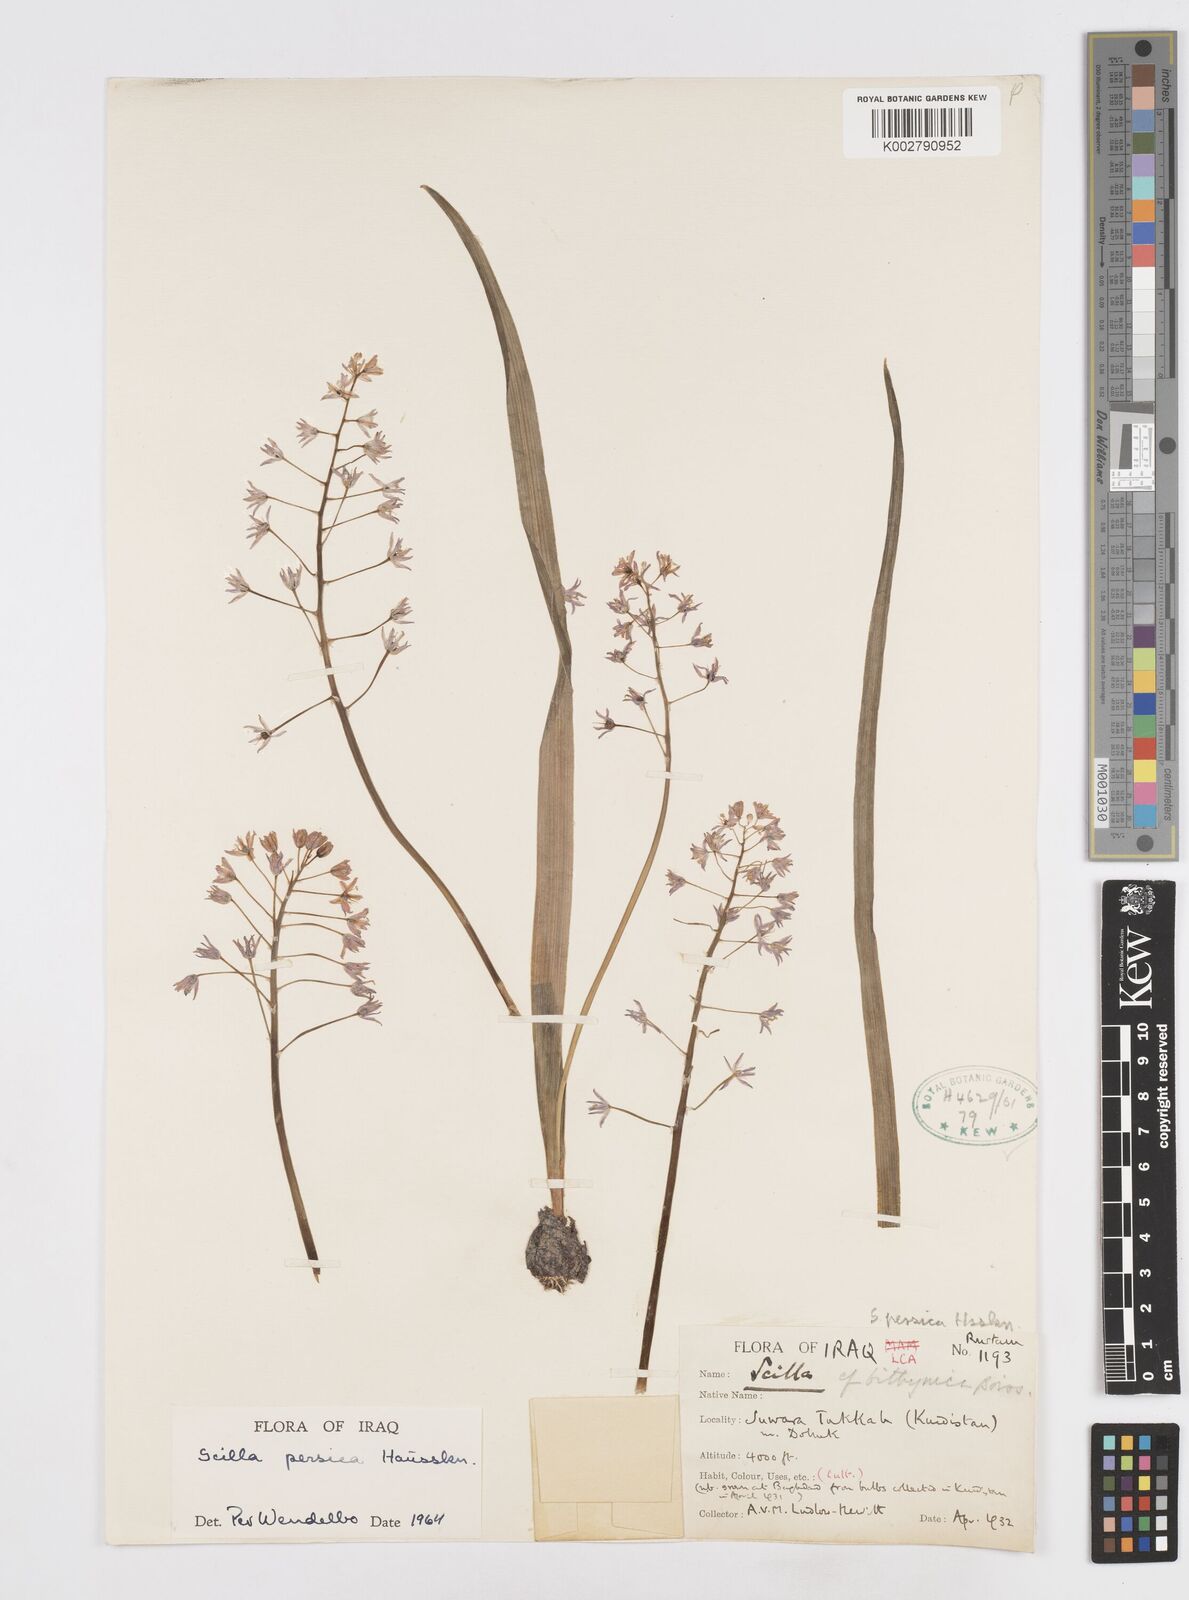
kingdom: Plantae
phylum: Tracheophyta
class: Liliopsida
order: Asparagales
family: Asparagaceae
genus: Zagrosia
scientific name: Zagrosia persica
